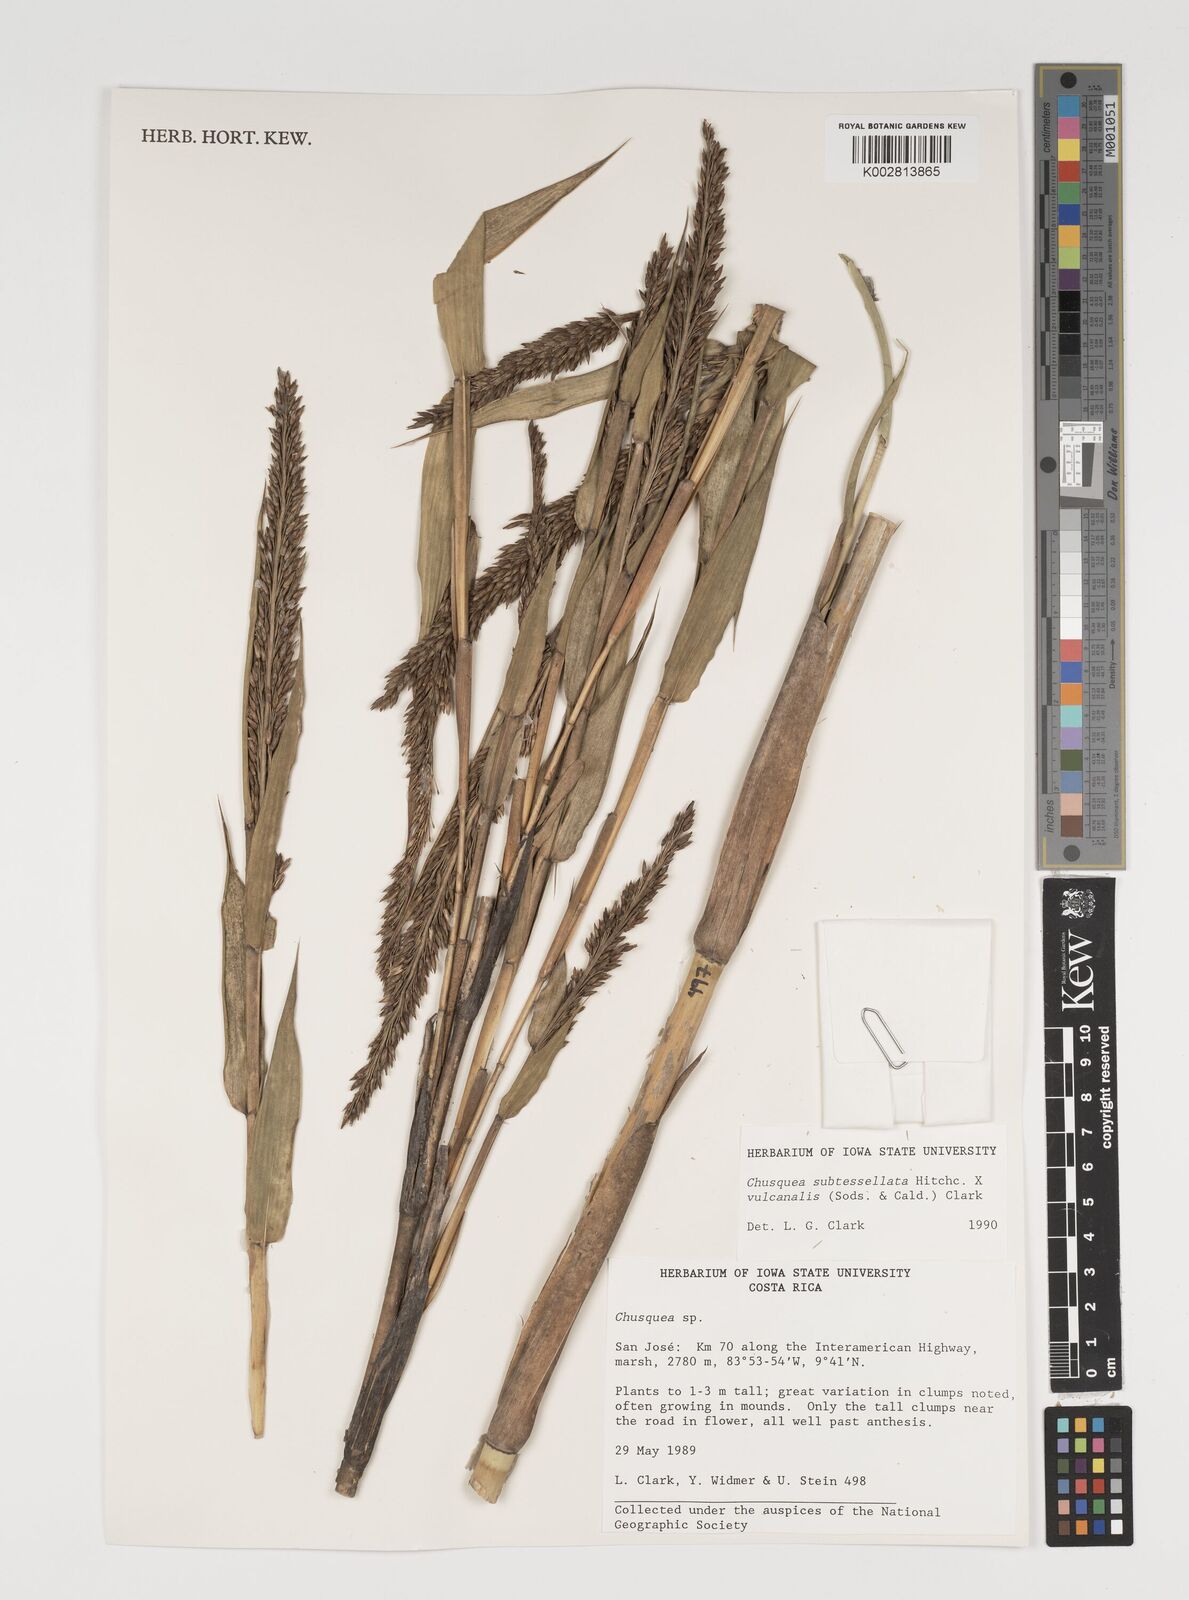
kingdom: Plantae
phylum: Tracheophyta
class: Liliopsida
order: Poales
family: Poaceae
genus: Chusquea
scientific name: Chusquea subtessellata
